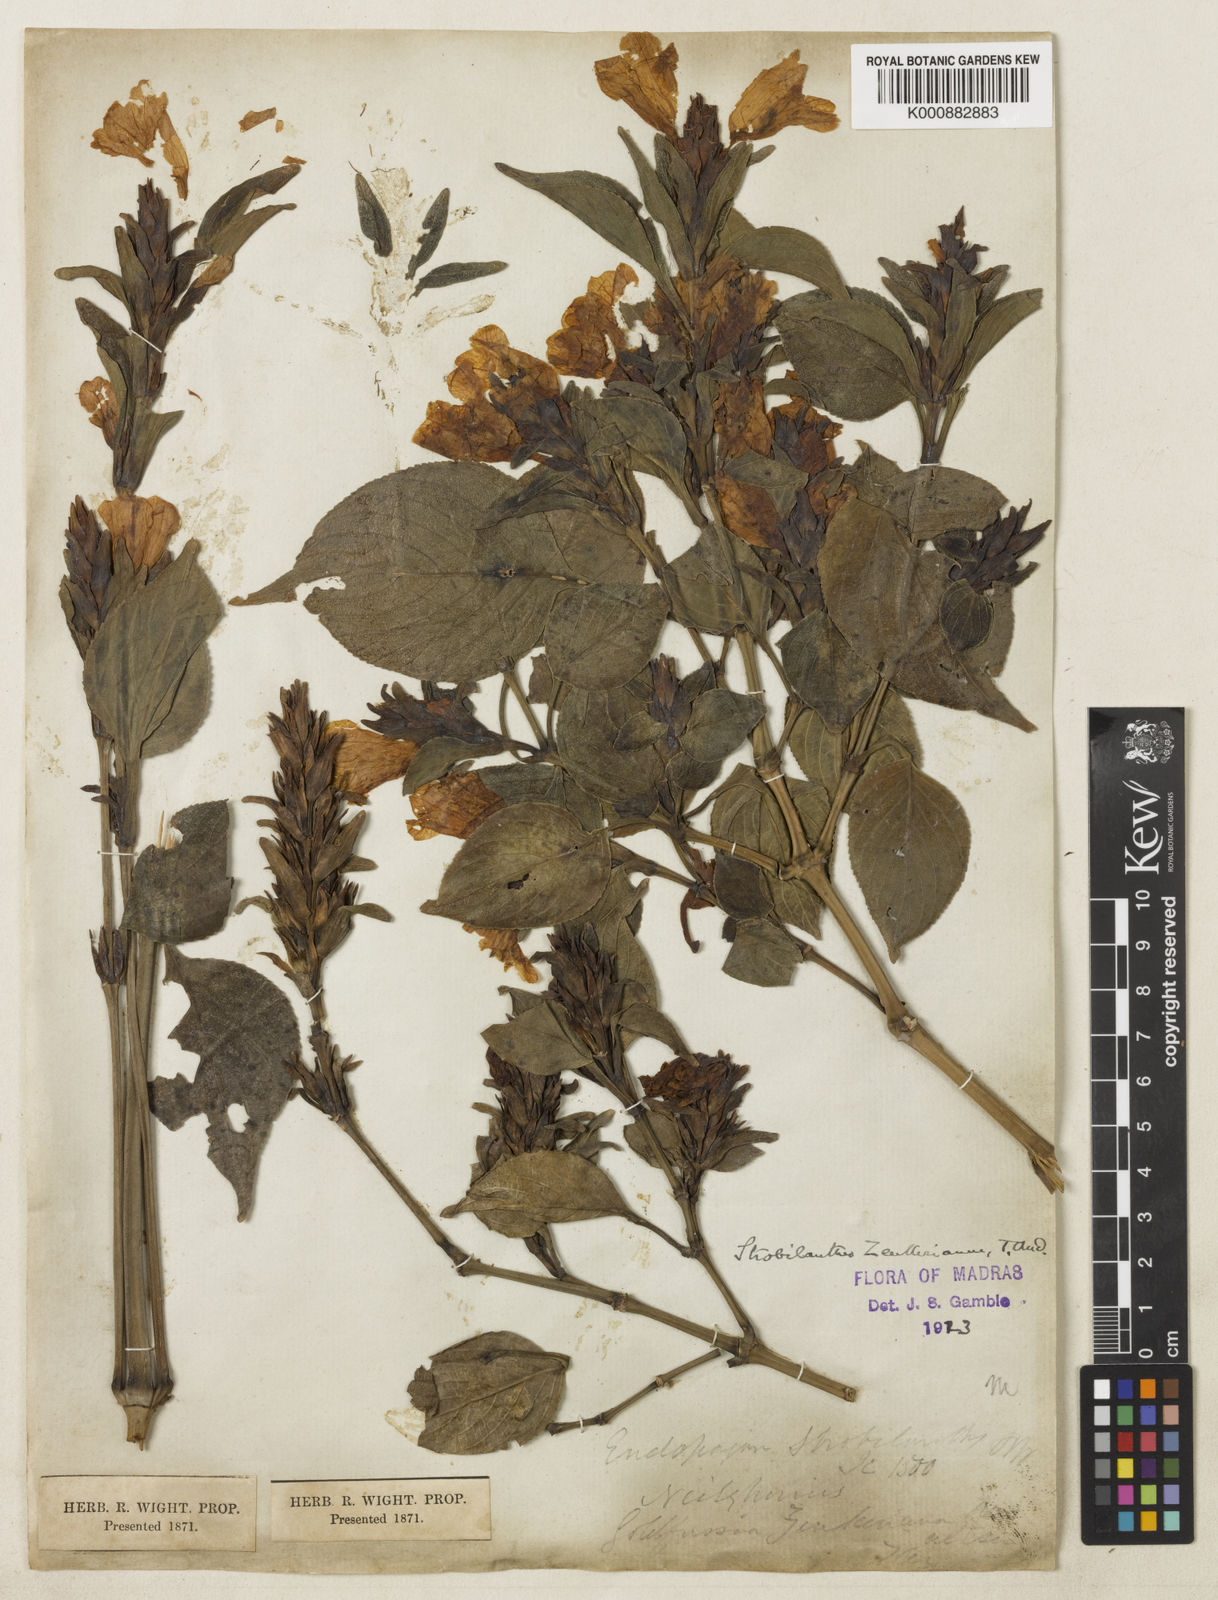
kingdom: Plantae
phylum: Tracheophyta
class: Magnoliopsida
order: Lamiales
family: Acanthaceae
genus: Strobilanthes
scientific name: Strobilanthes zenkeriana
